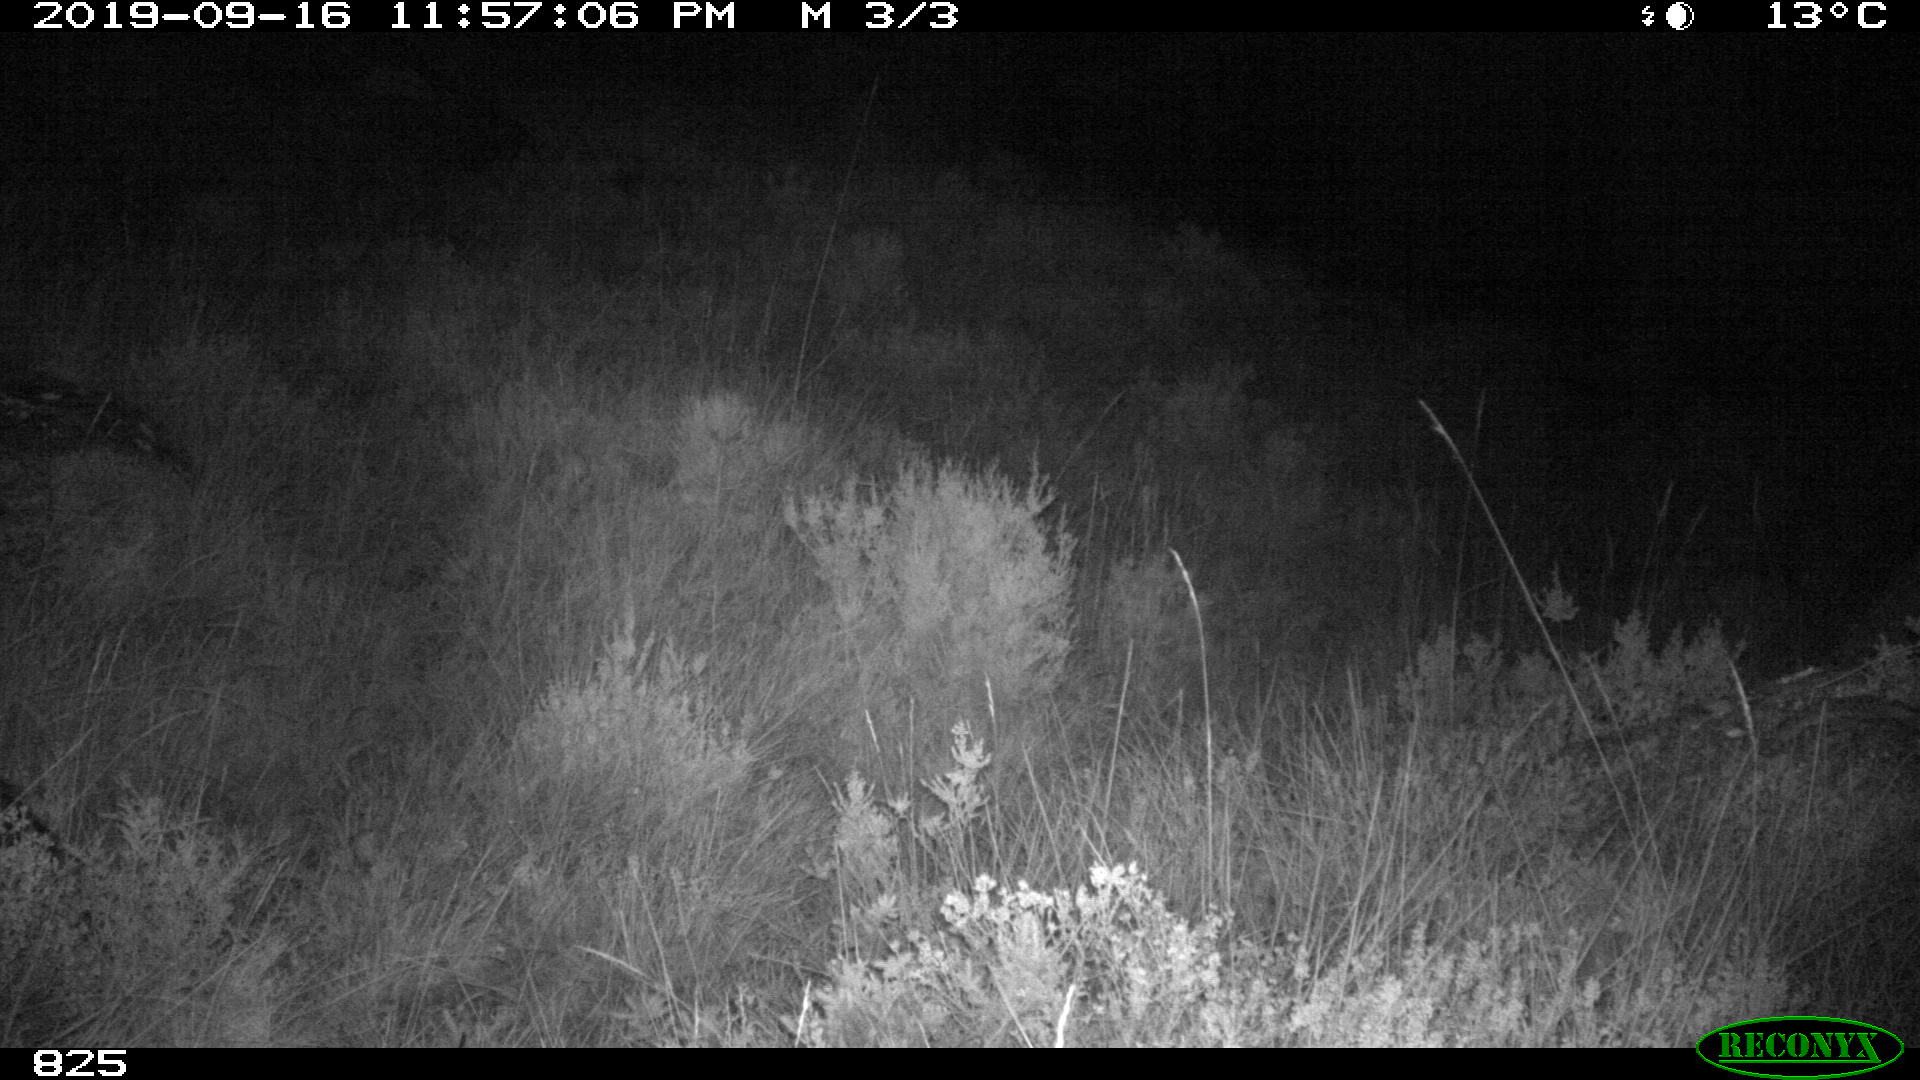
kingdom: Animalia
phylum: Chordata
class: Mammalia
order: Artiodactyla
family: Suidae
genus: Sus
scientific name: Sus scrofa
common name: Wild boar
